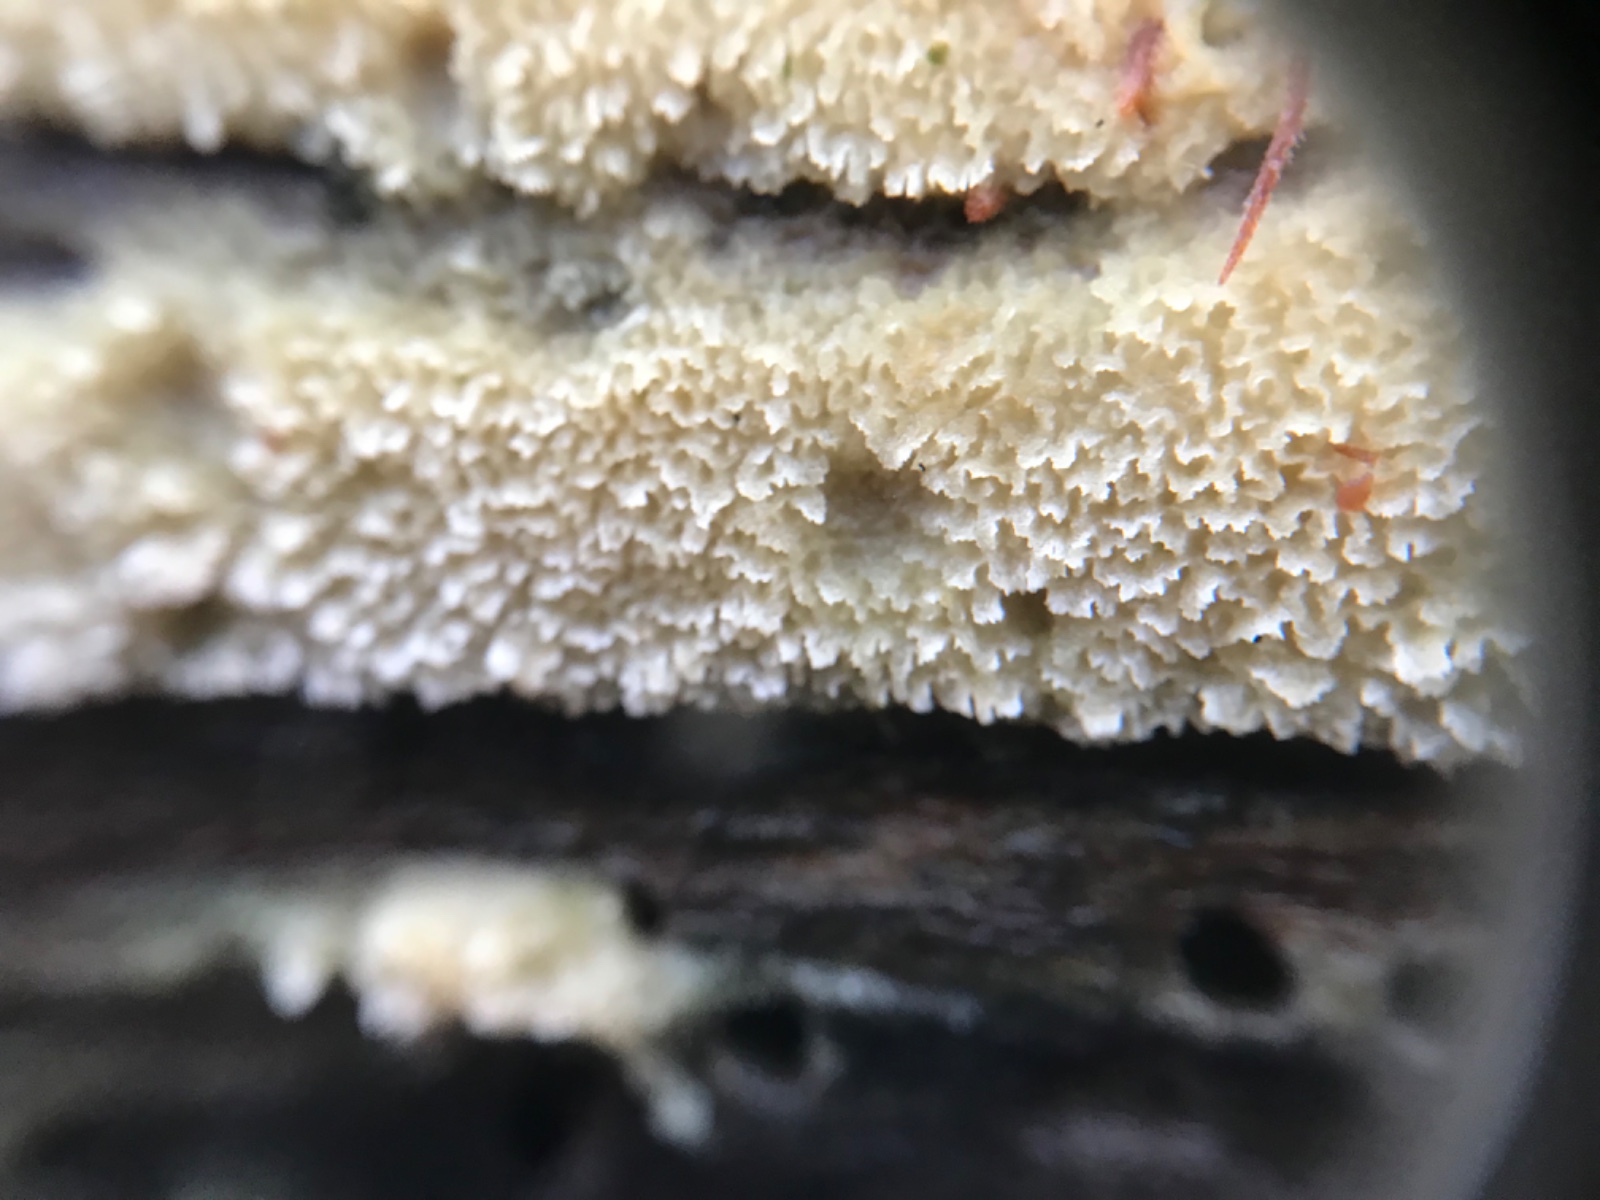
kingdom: Fungi
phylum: Basidiomycota
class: Agaricomycetes
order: Hymenochaetales
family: Schizoporaceae
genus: Xylodon
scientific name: Xylodon
